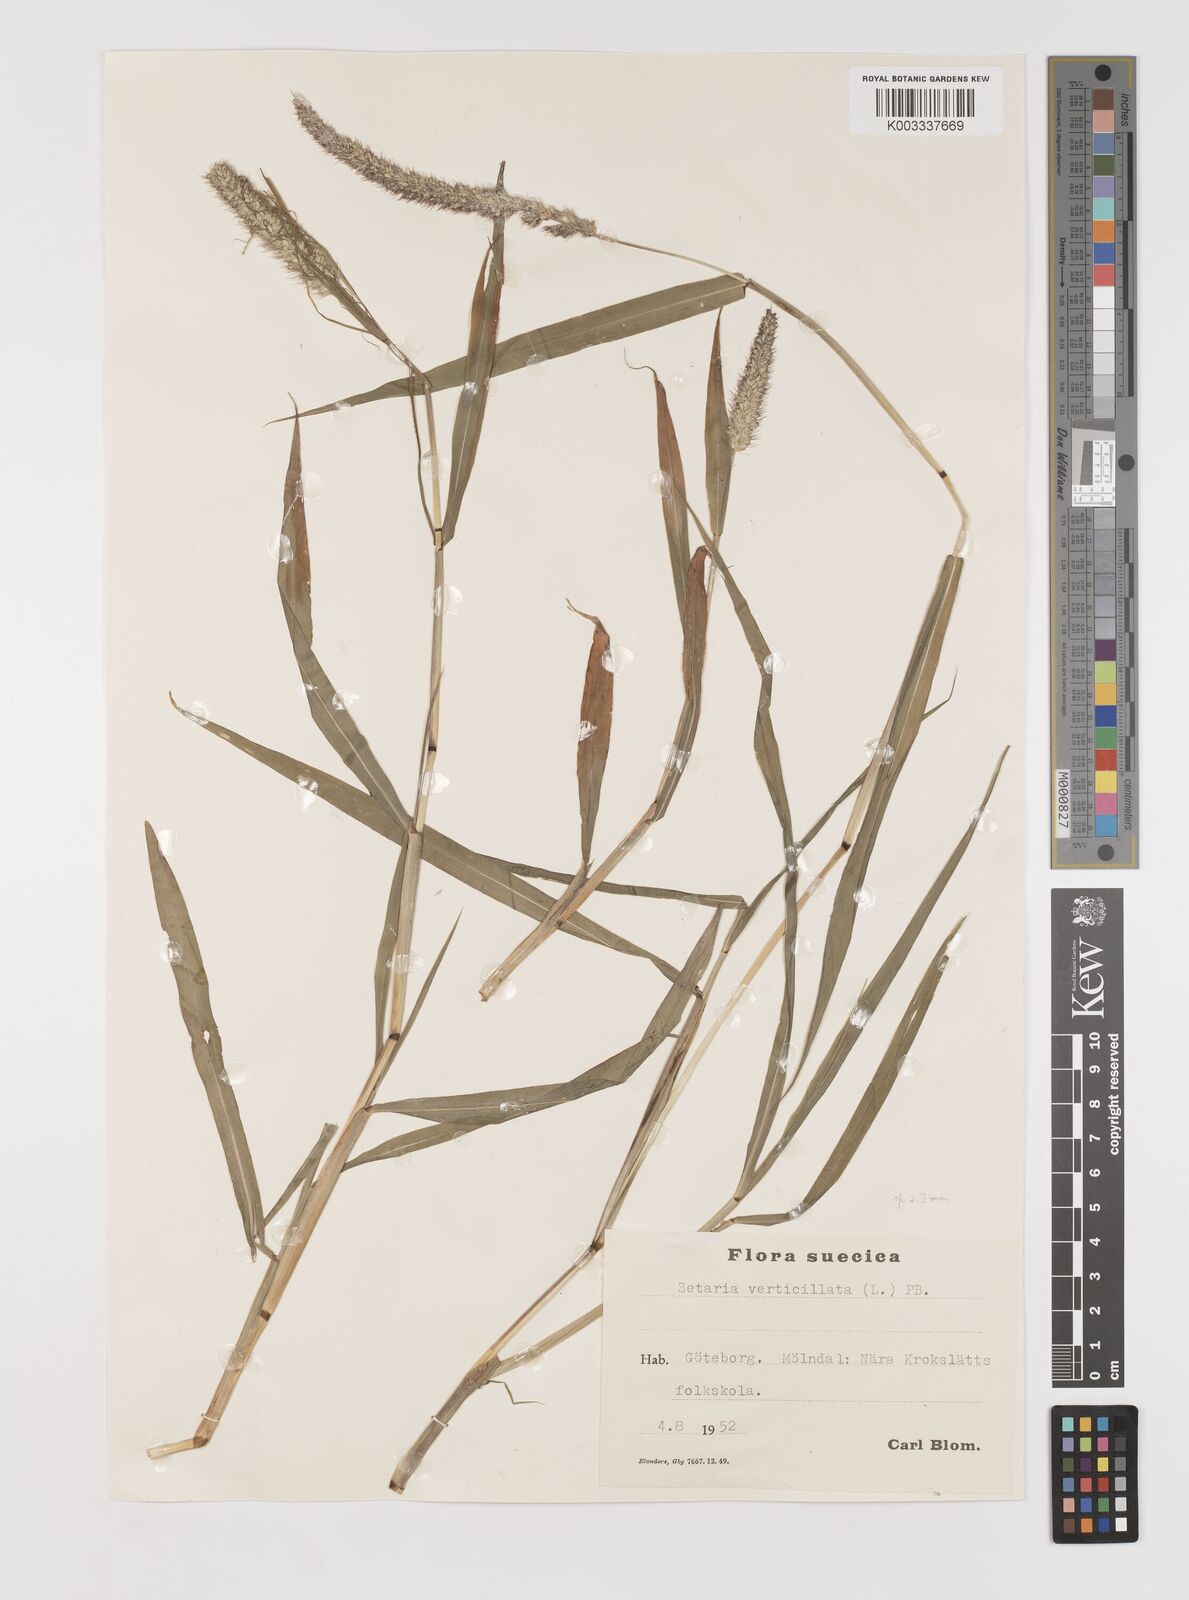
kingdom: Plantae
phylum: Tracheophyta
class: Liliopsida
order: Poales
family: Poaceae
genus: Setaria
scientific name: Setaria verticillata
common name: Hooked bristlegrass
